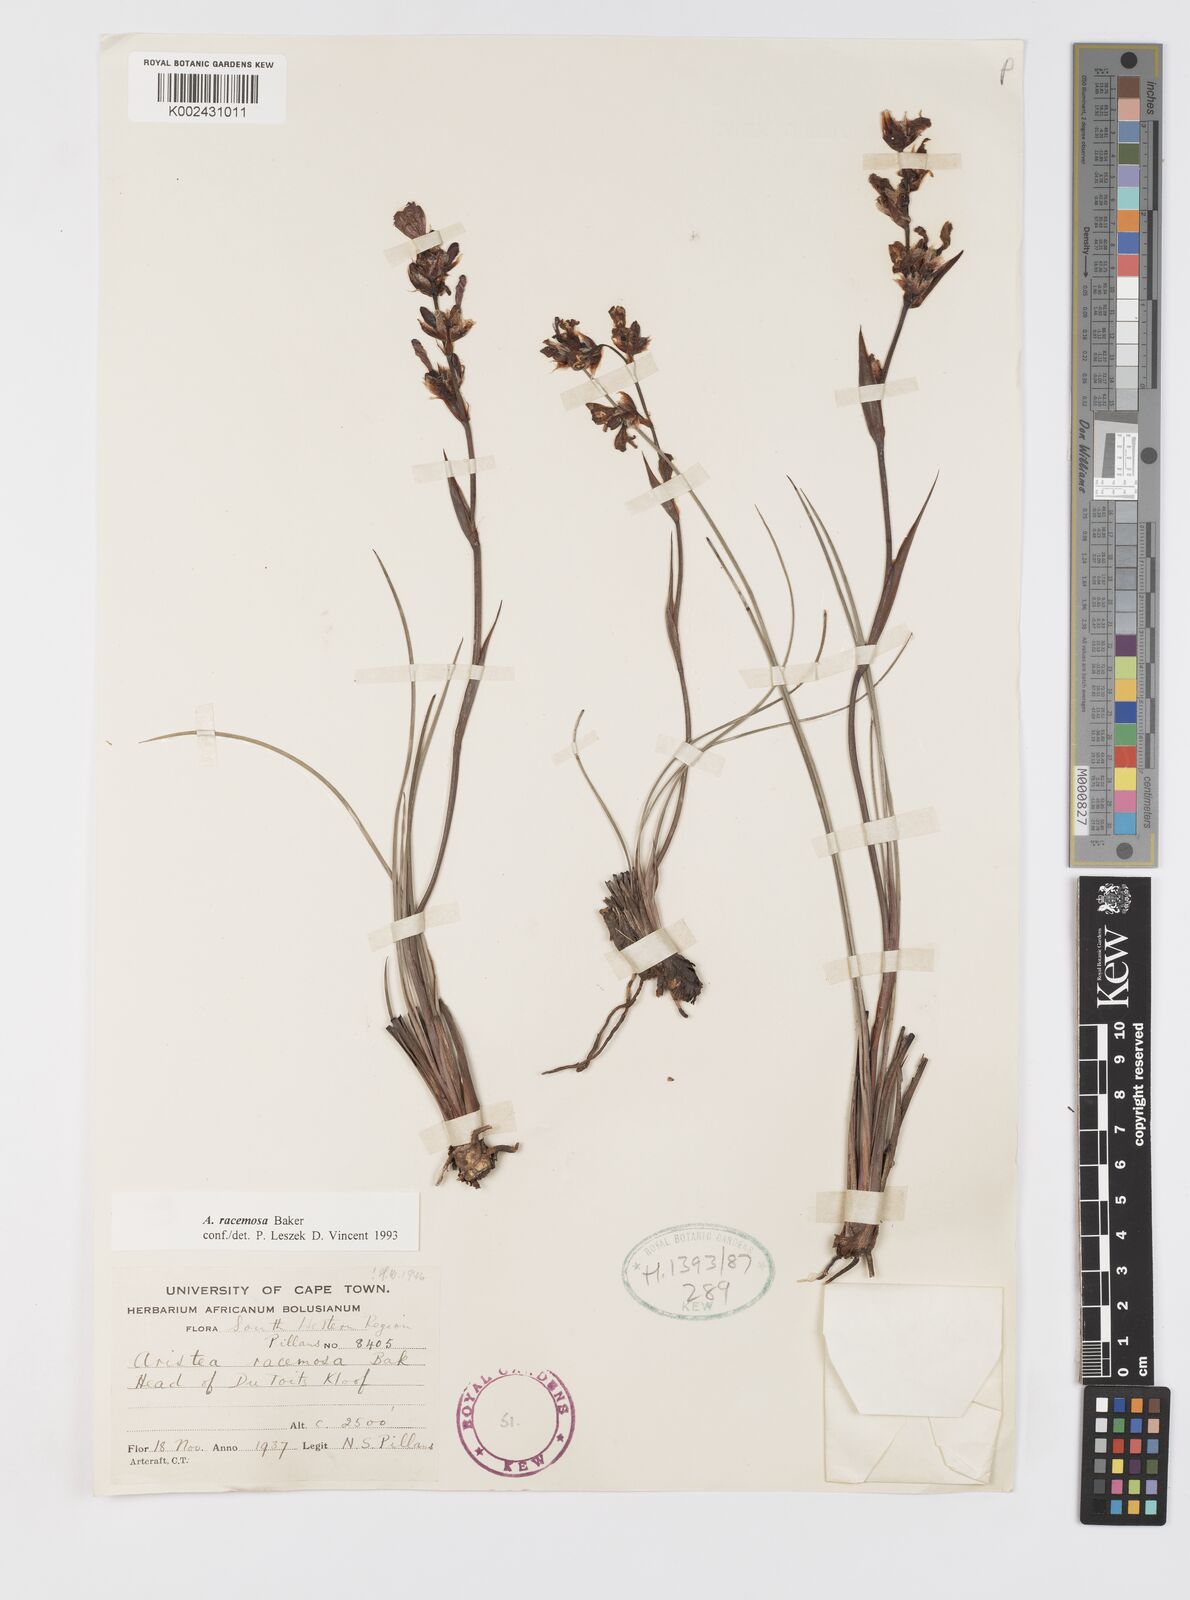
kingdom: Plantae
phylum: Tracheophyta
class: Liliopsida
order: Asparagales
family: Iridaceae
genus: Aristea
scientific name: Aristea racemosa
